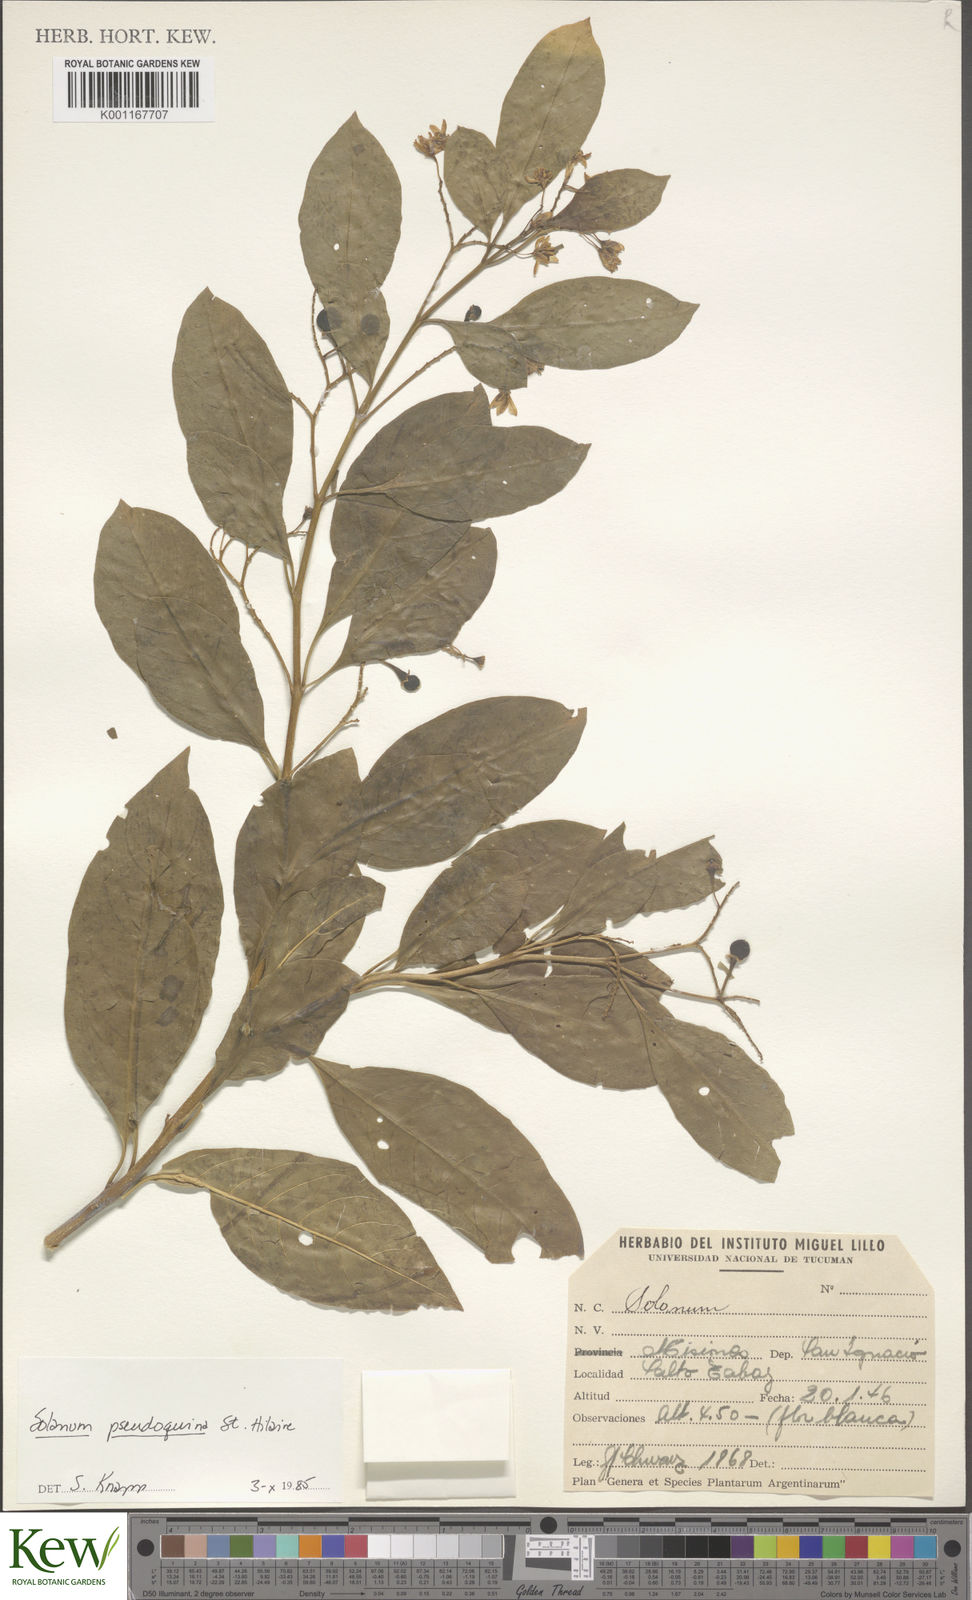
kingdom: Plantae
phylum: Tracheophyta
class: Magnoliopsida
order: Solanales
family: Solanaceae
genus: Solanum
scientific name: Solanum pseudoquina
